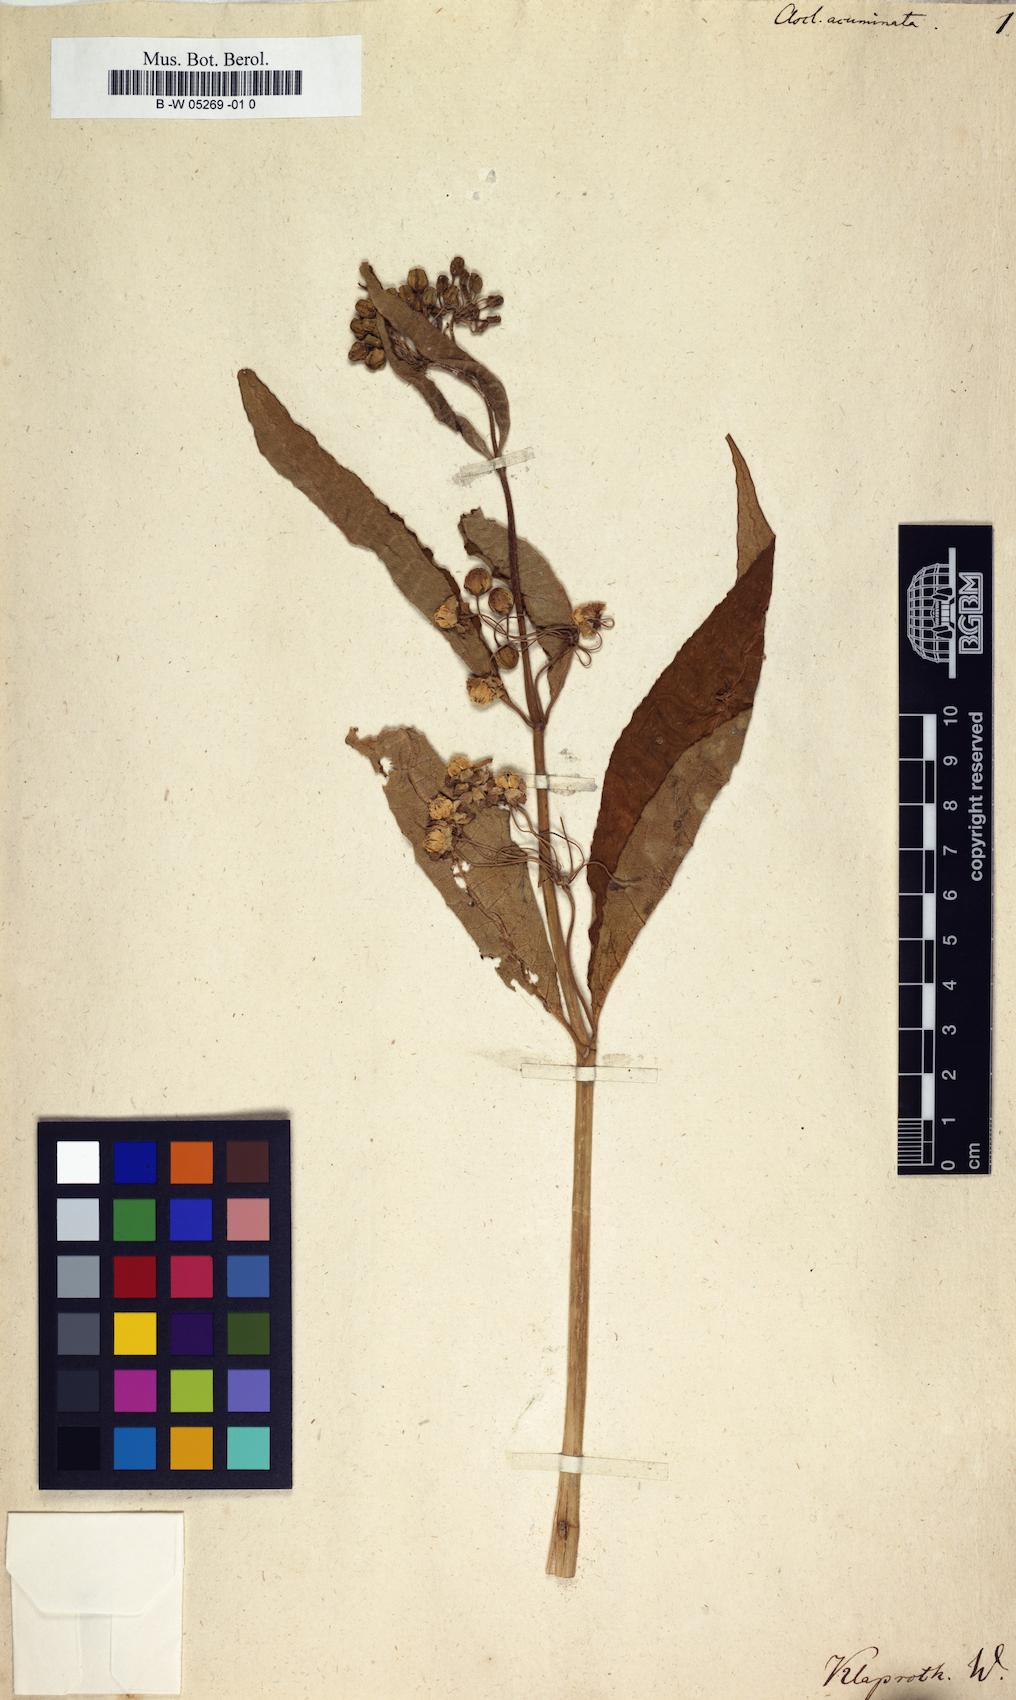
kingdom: Plantae
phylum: Tracheophyta
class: Magnoliopsida
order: Gentianales
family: Apocynaceae
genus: Asclepias
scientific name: Asclepias rubra
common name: Red milkweed
